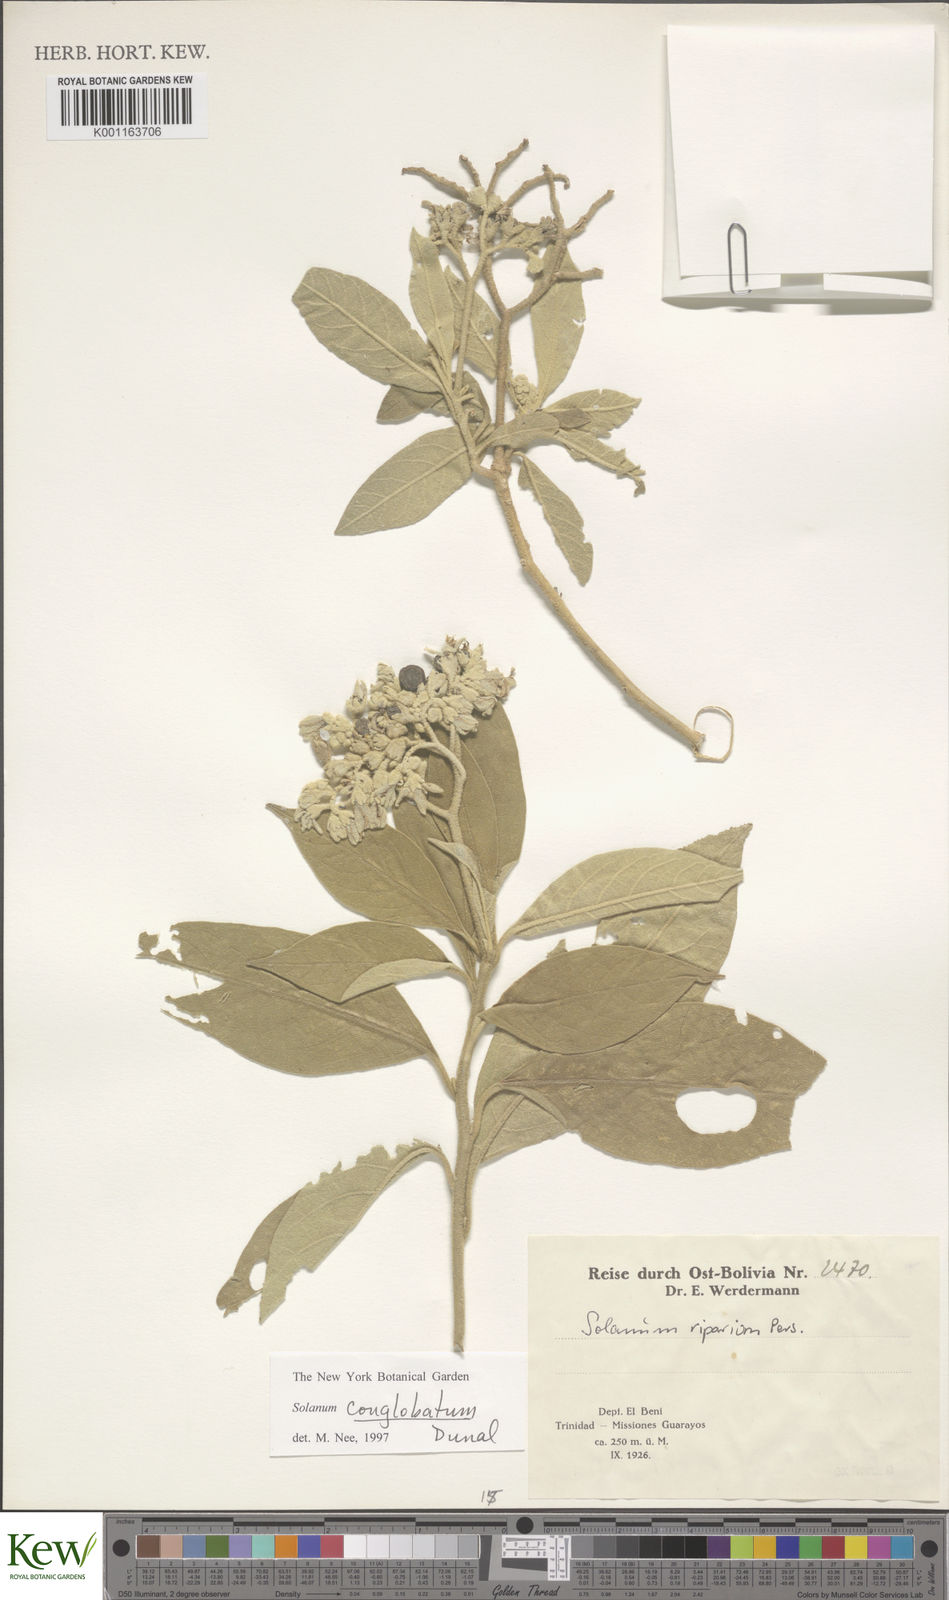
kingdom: Plantae
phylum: Tracheophyta
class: Magnoliopsida
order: Solanales
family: Solanaceae
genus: Solanum
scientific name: Solanum conglobatum
